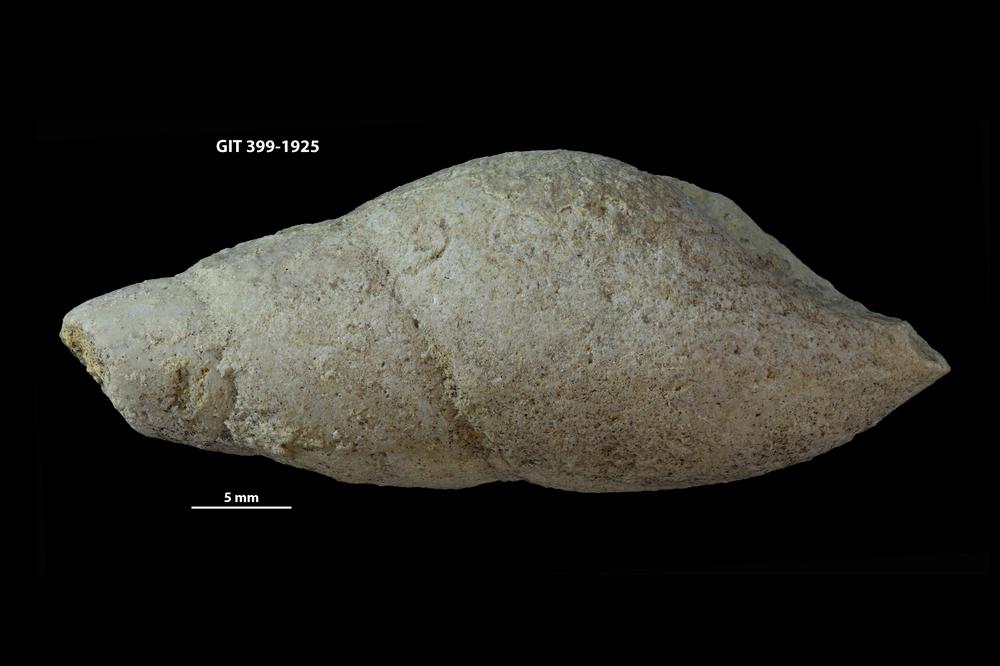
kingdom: Animalia
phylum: Mollusca
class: Gastropoda
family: Subulitidae
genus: Subulites
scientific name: Subulites amphora
